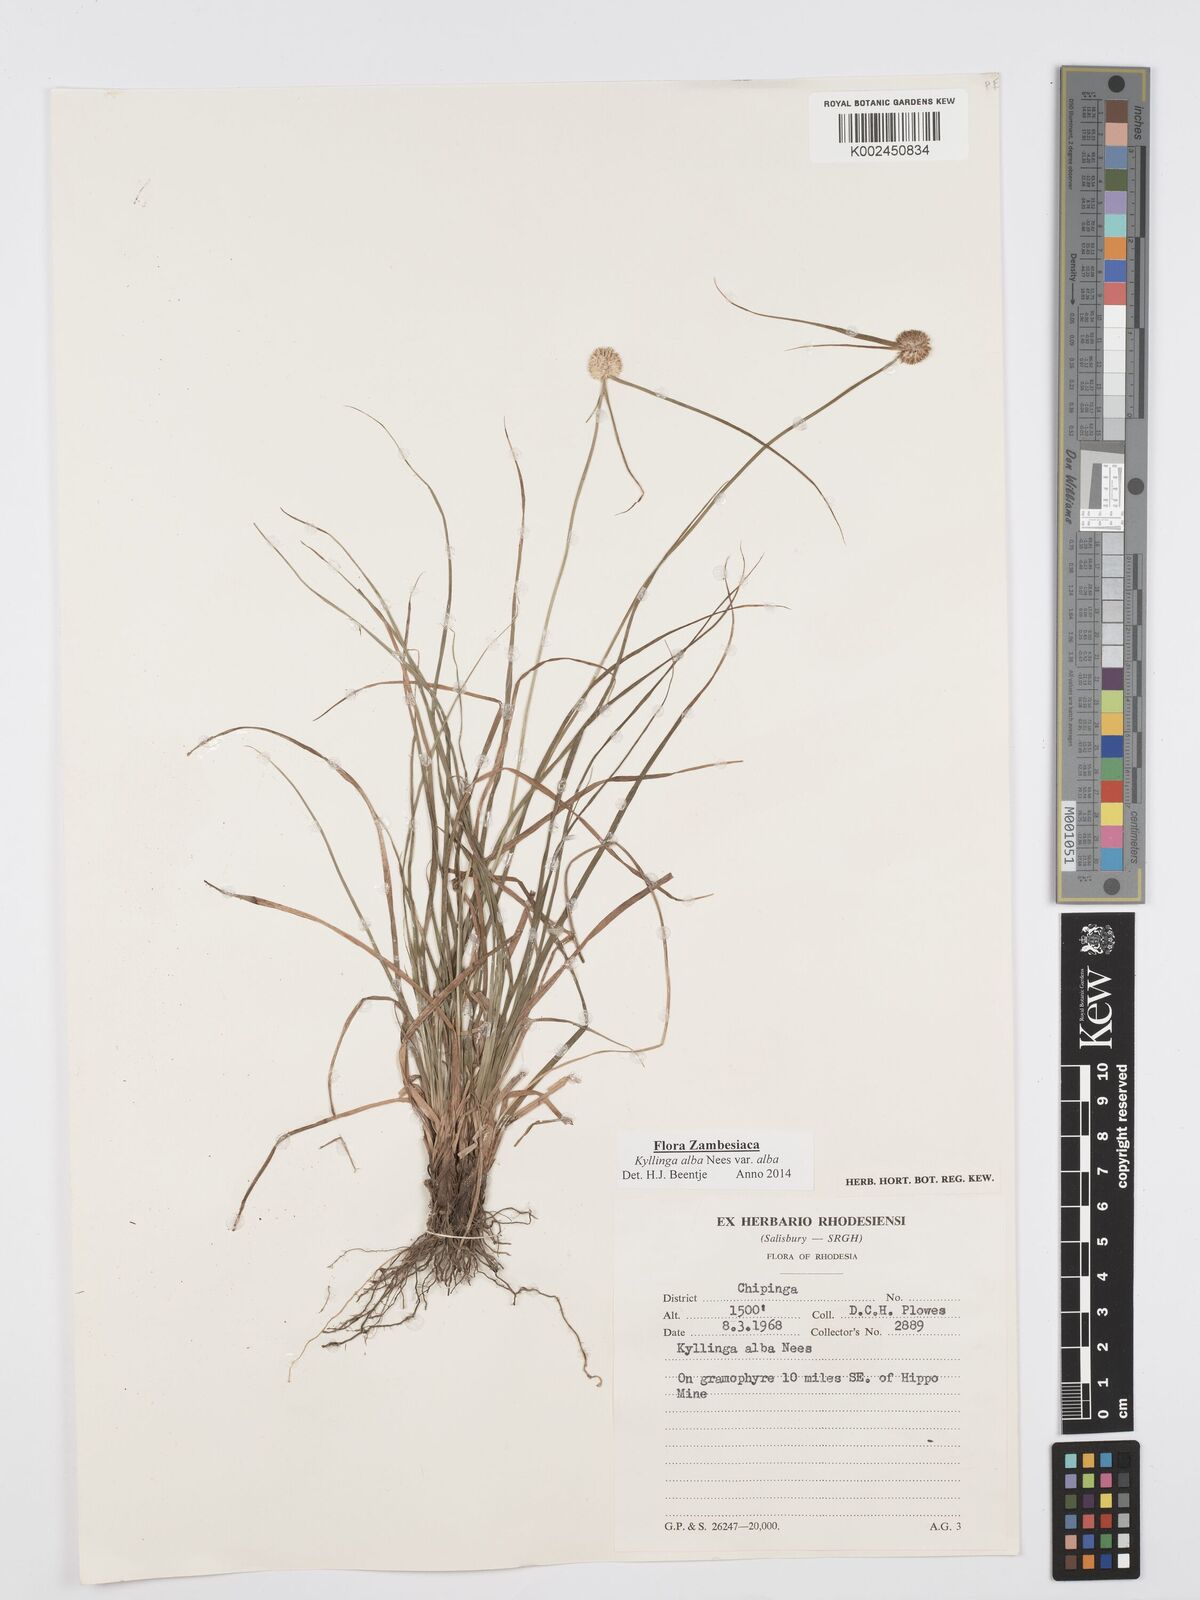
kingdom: Plantae
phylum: Tracheophyta
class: Liliopsida
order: Poales
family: Cyperaceae
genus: Cyperus
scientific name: Cyperus
